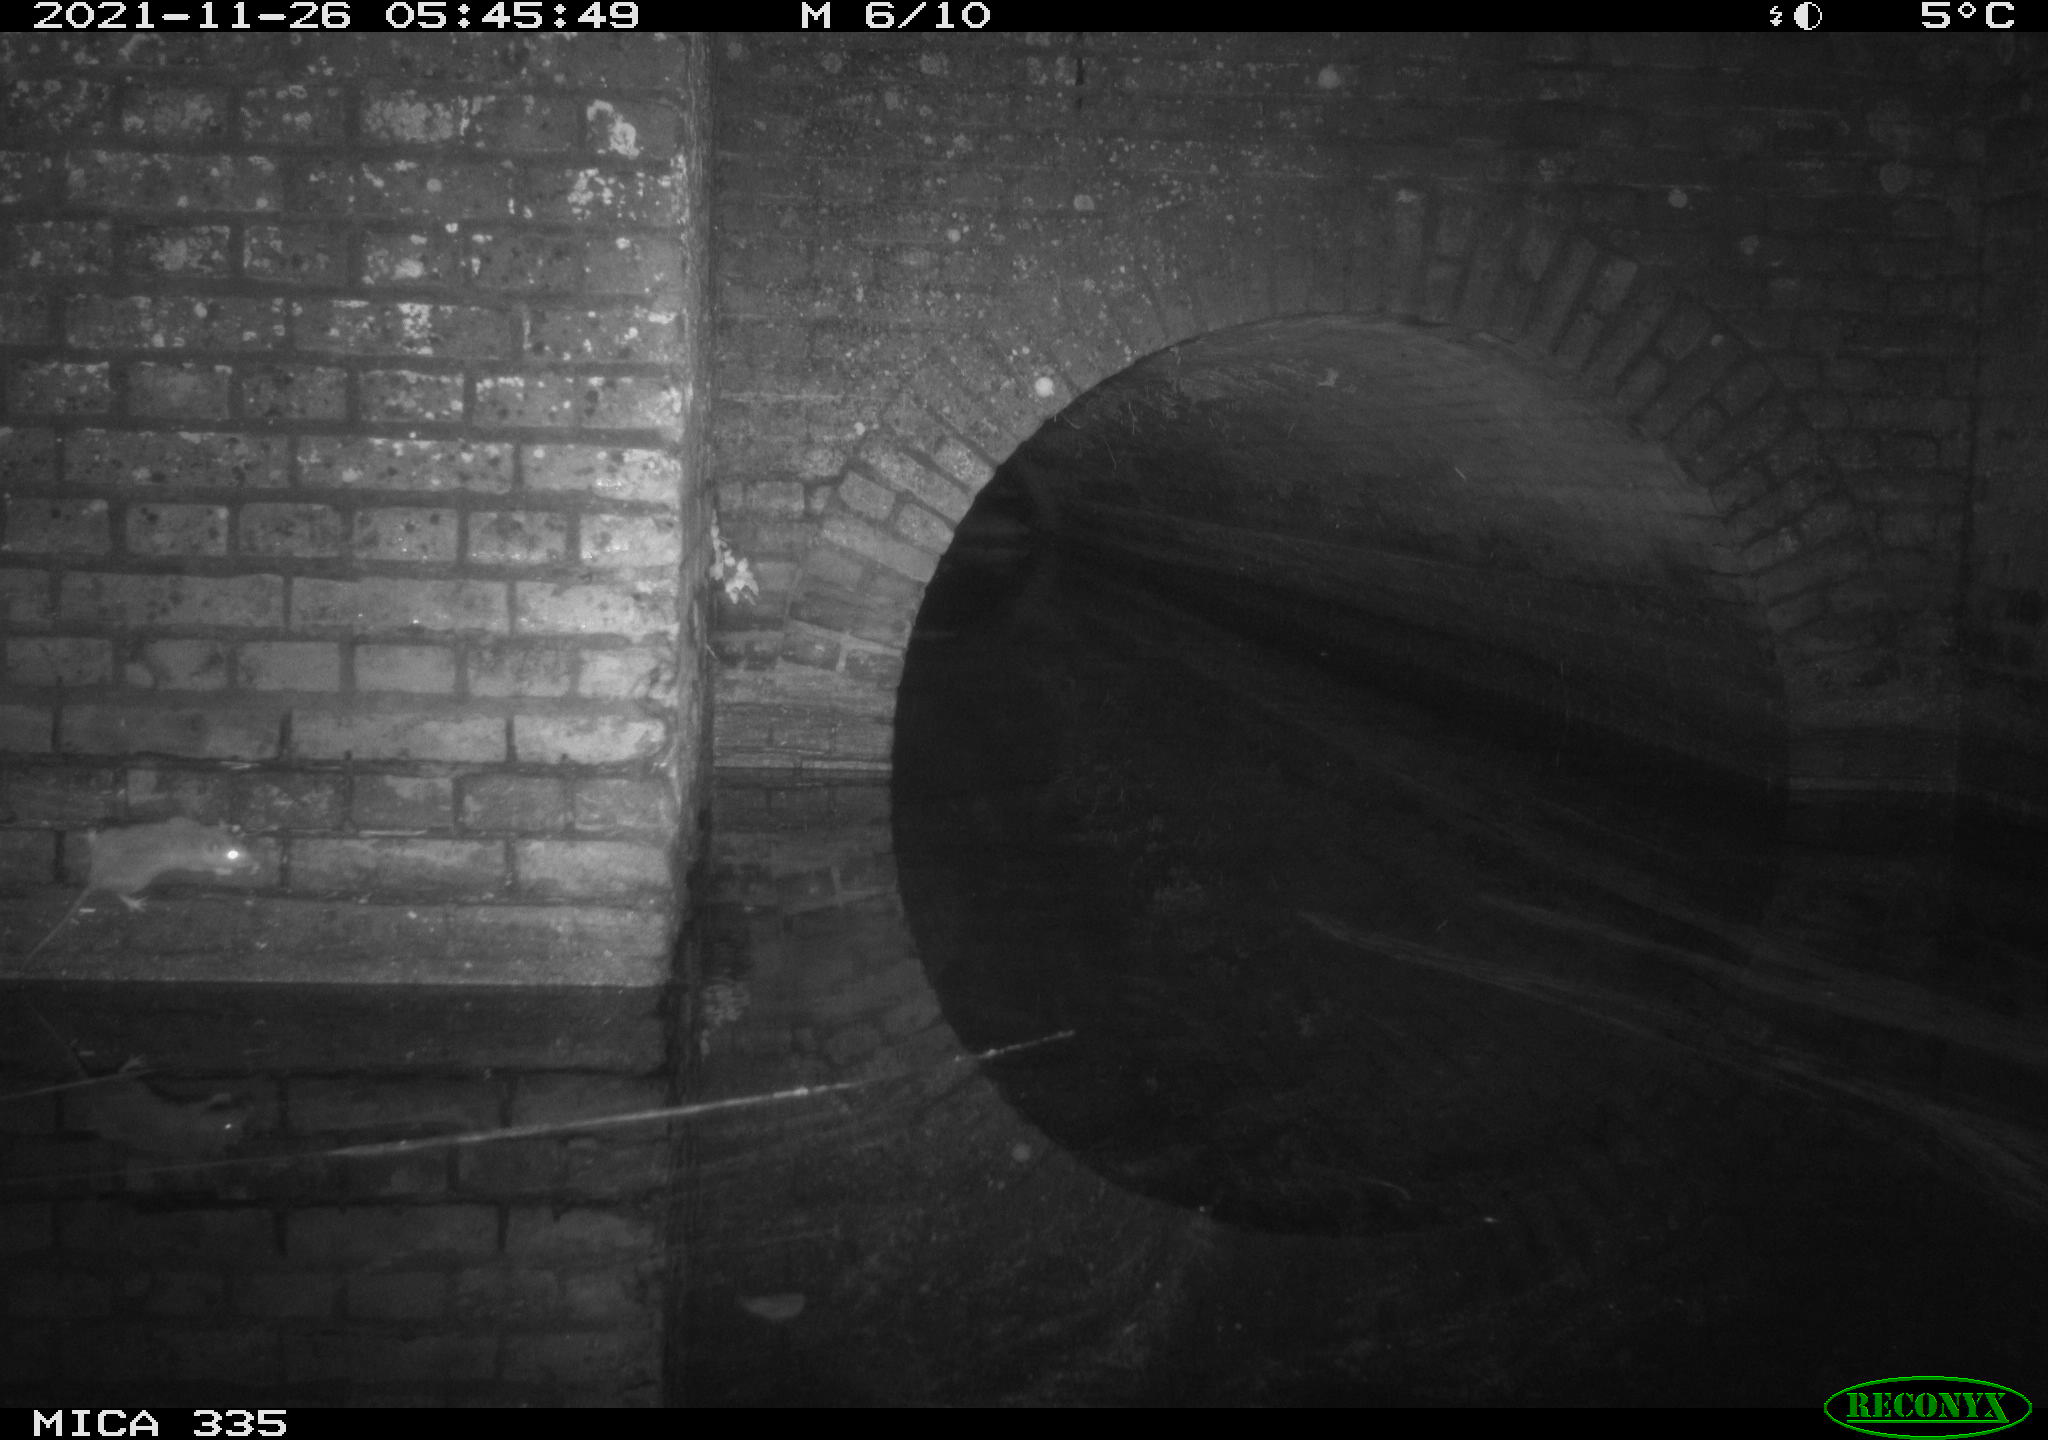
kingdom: Animalia
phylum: Chordata
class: Mammalia
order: Rodentia
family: Muridae
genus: Rattus
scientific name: Rattus norvegicus
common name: Brown rat
